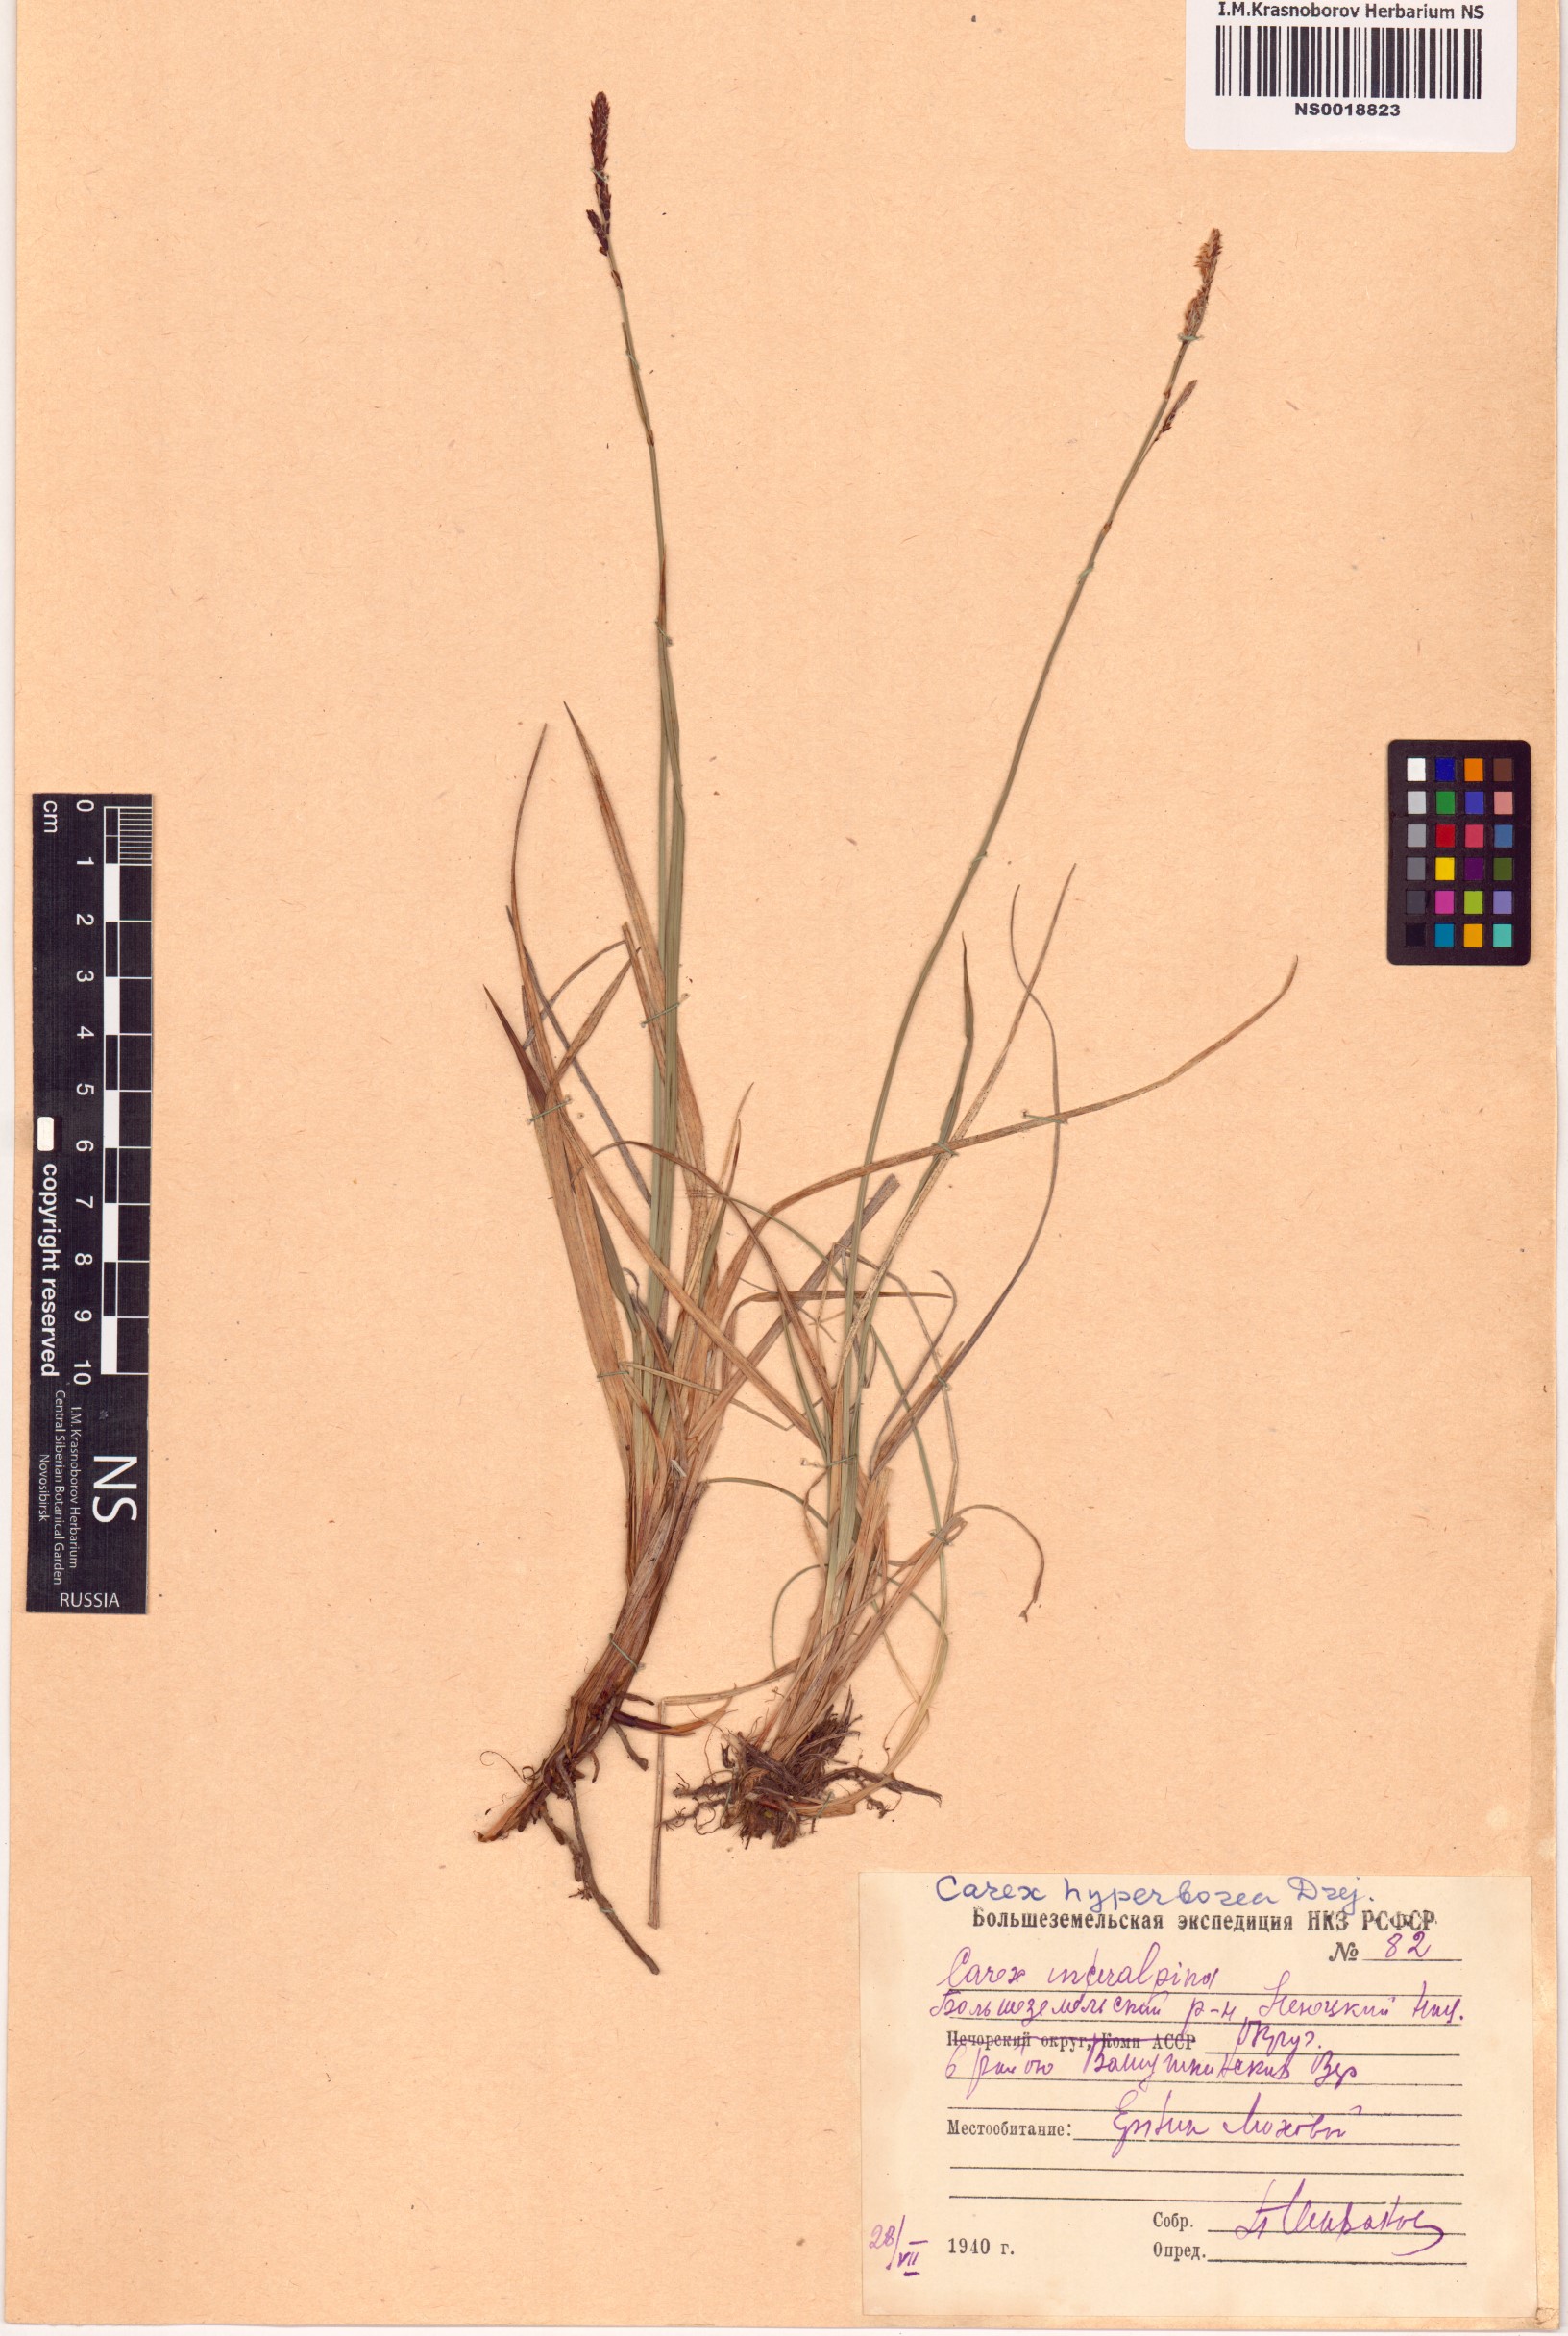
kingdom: Plantae
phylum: Tracheophyta
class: Liliopsida
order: Poales
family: Cyperaceae
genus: Carex
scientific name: Carex dacica
